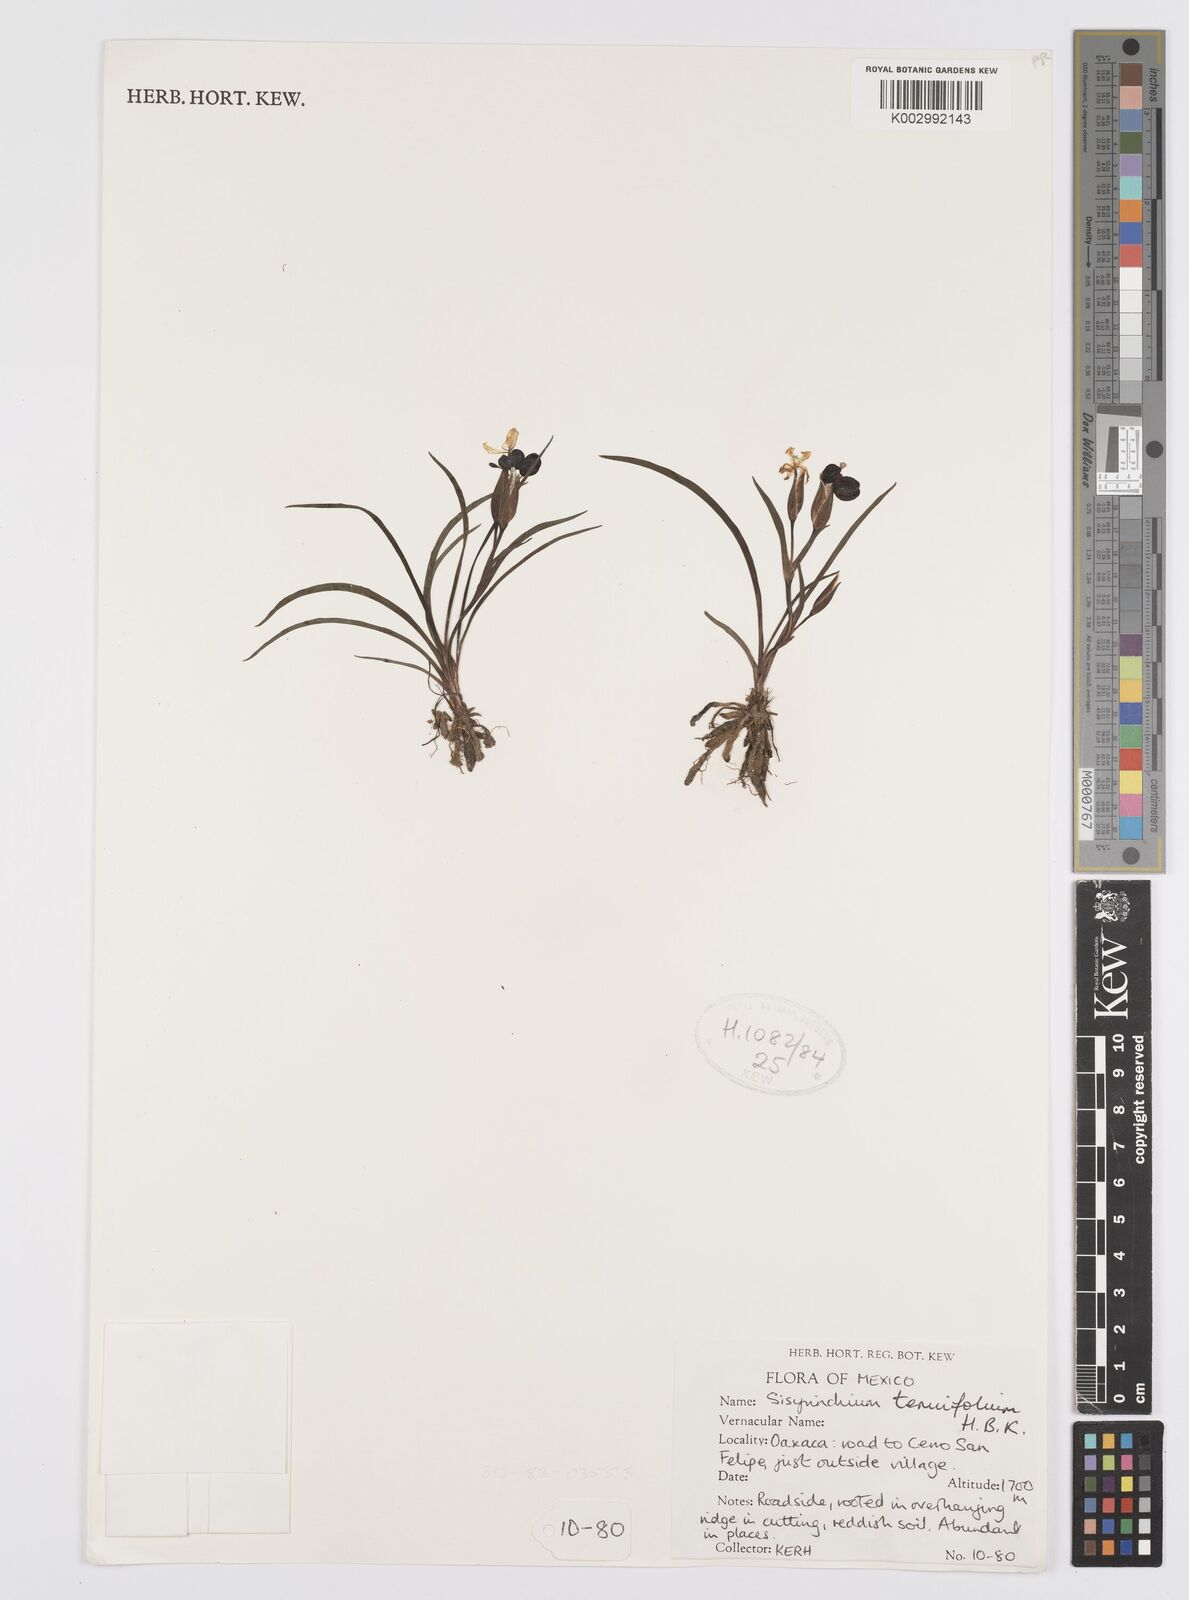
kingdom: Plantae
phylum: Tracheophyta
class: Liliopsida
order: Asparagales
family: Iridaceae
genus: Sisyrinchium
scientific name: Sisyrinchium langloisii
